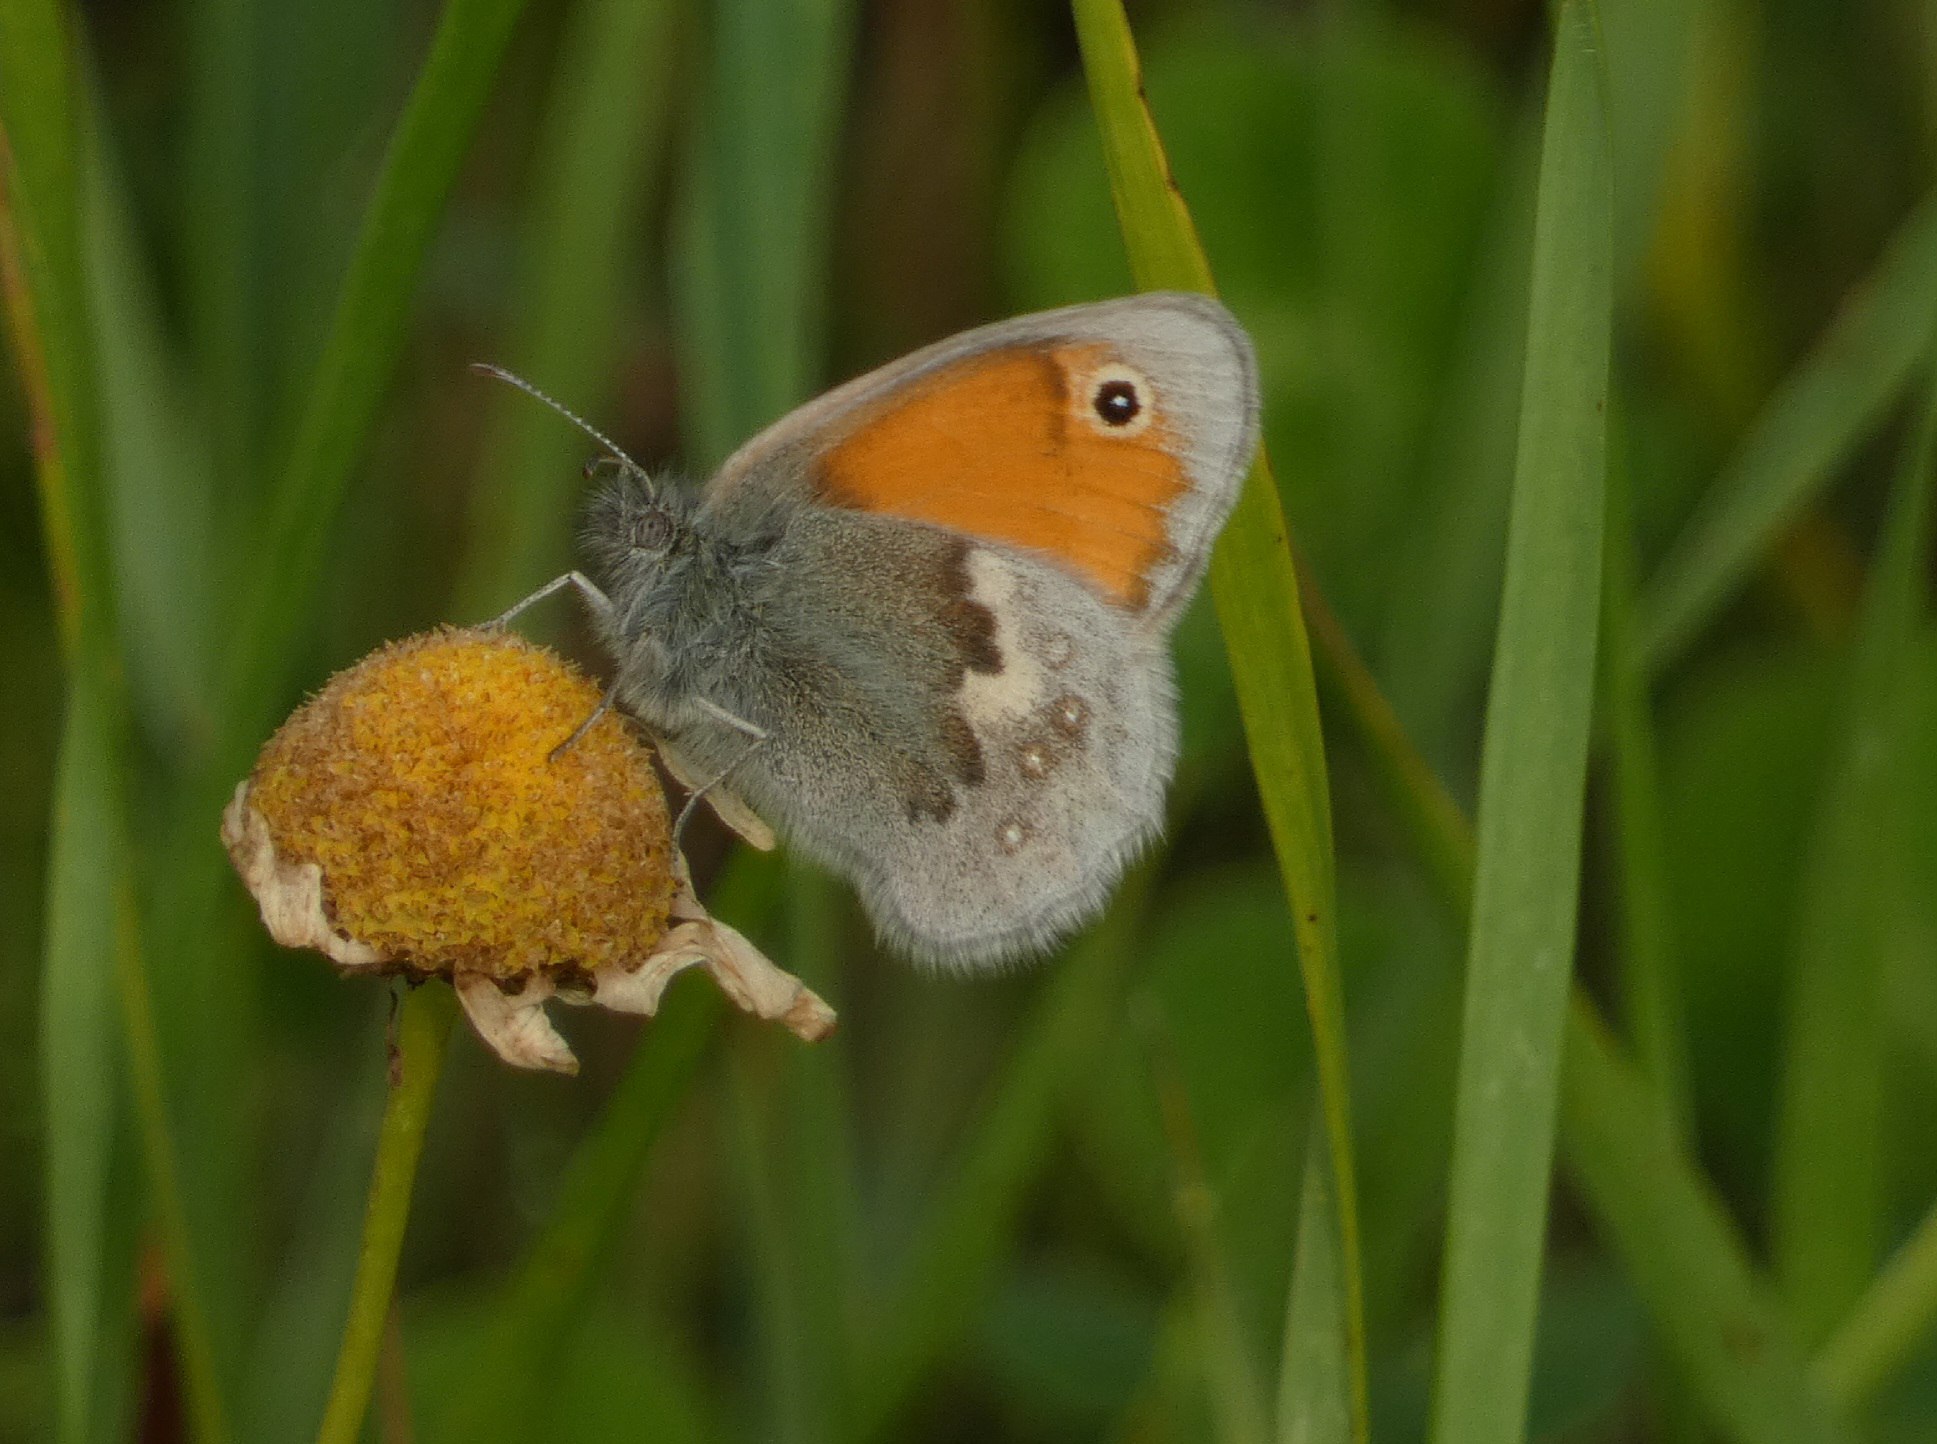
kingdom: Animalia
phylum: Arthropoda
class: Insecta
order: Lepidoptera
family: Nymphalidae
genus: Coenonympha
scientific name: Coenonympha pamphilus
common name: Okkergul randøje
